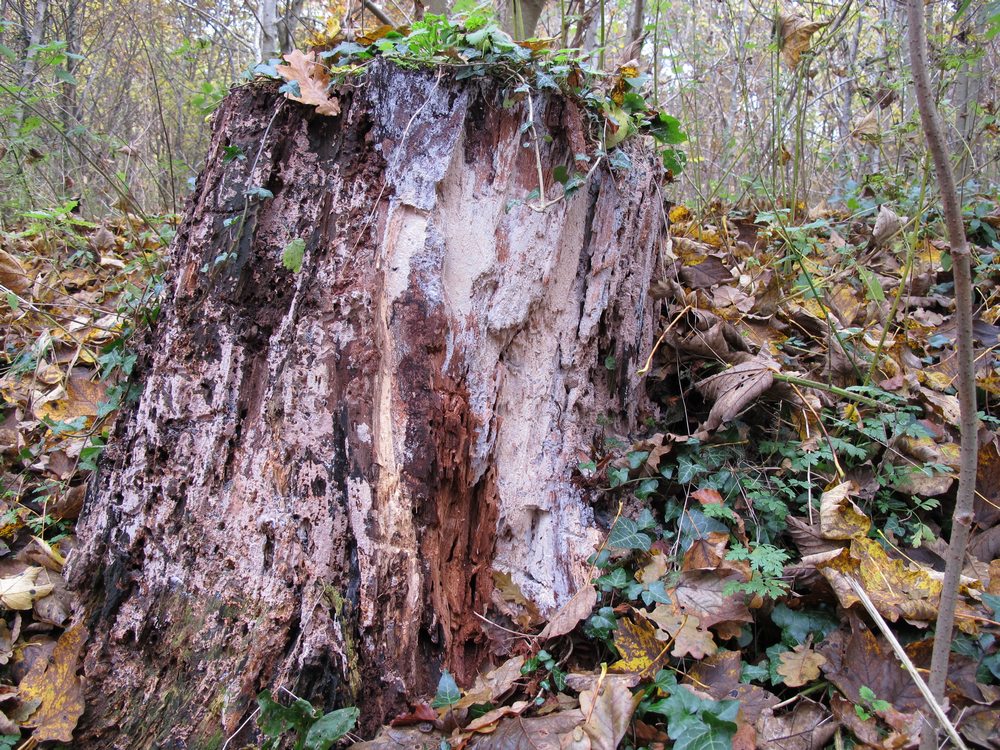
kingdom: Fungi
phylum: Basidiomycota
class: Agaricomycetes
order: Russulales
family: Peniophoraceae
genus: Gloiothele
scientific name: Gloiothele lactescens
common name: bitter olieskind
